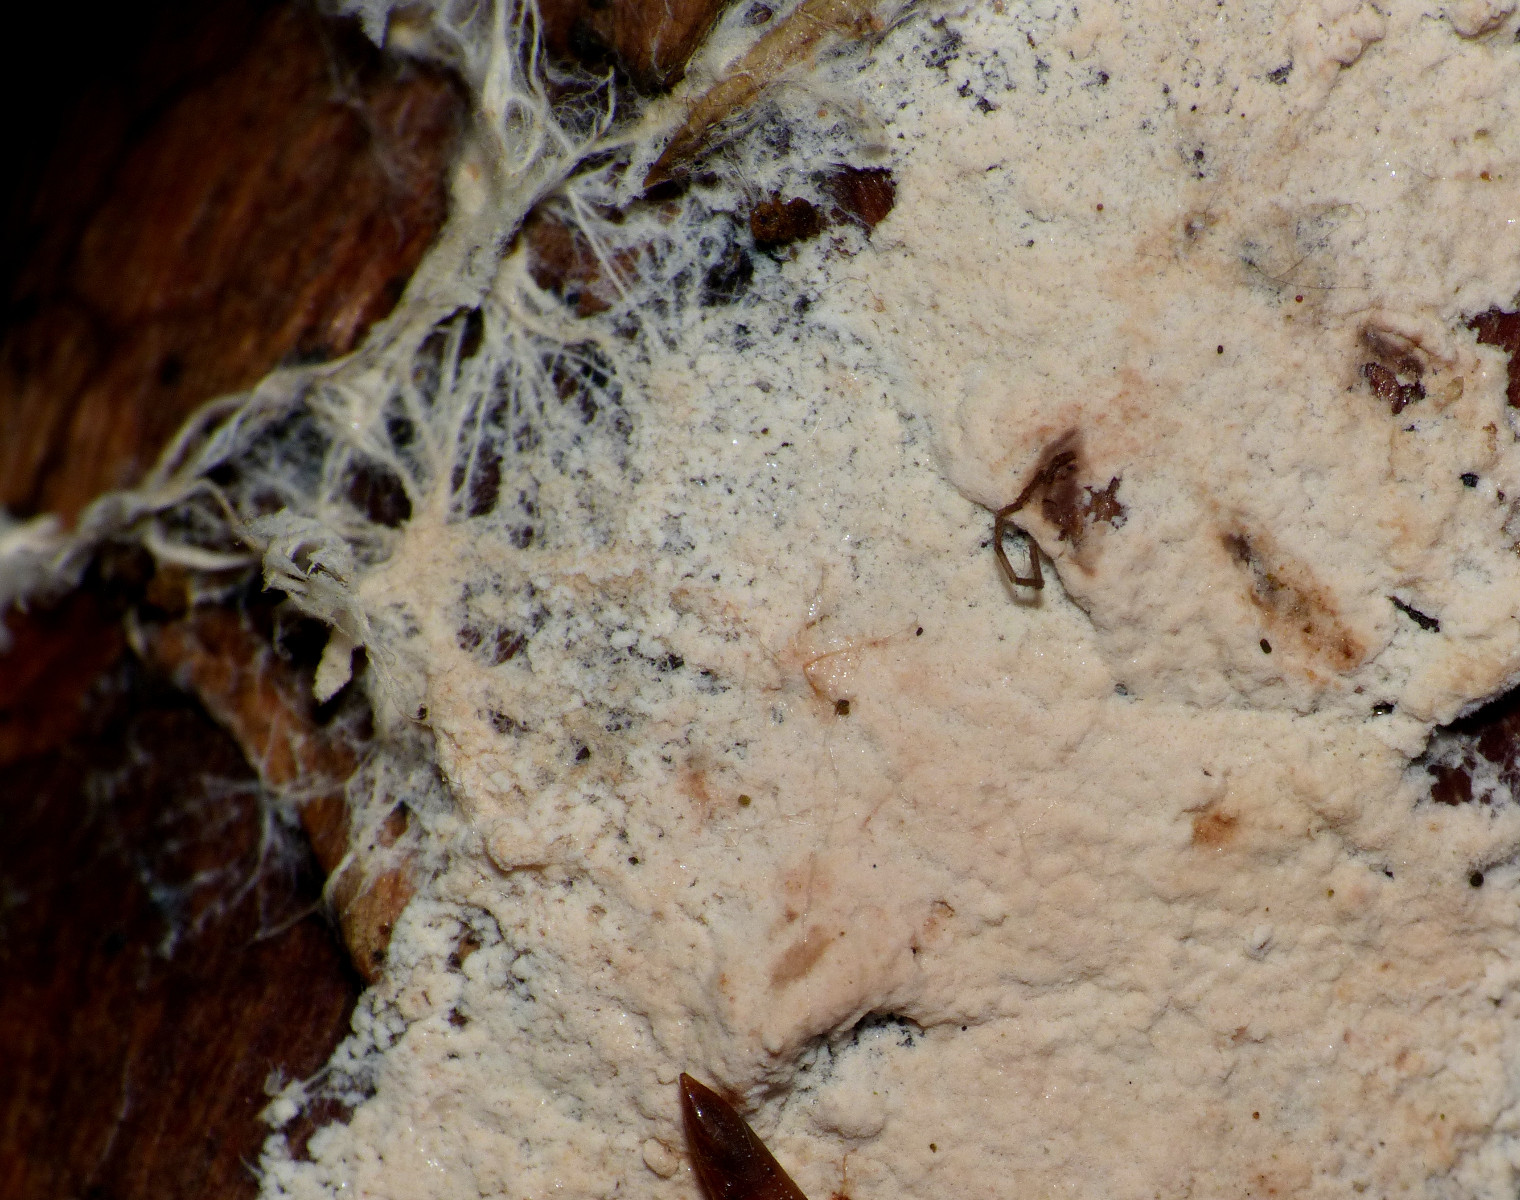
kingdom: Fungi
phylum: Basidiomycota
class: Agaricomycetes
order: Corticiales
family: Corticiaceae
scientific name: Corticiaceae
